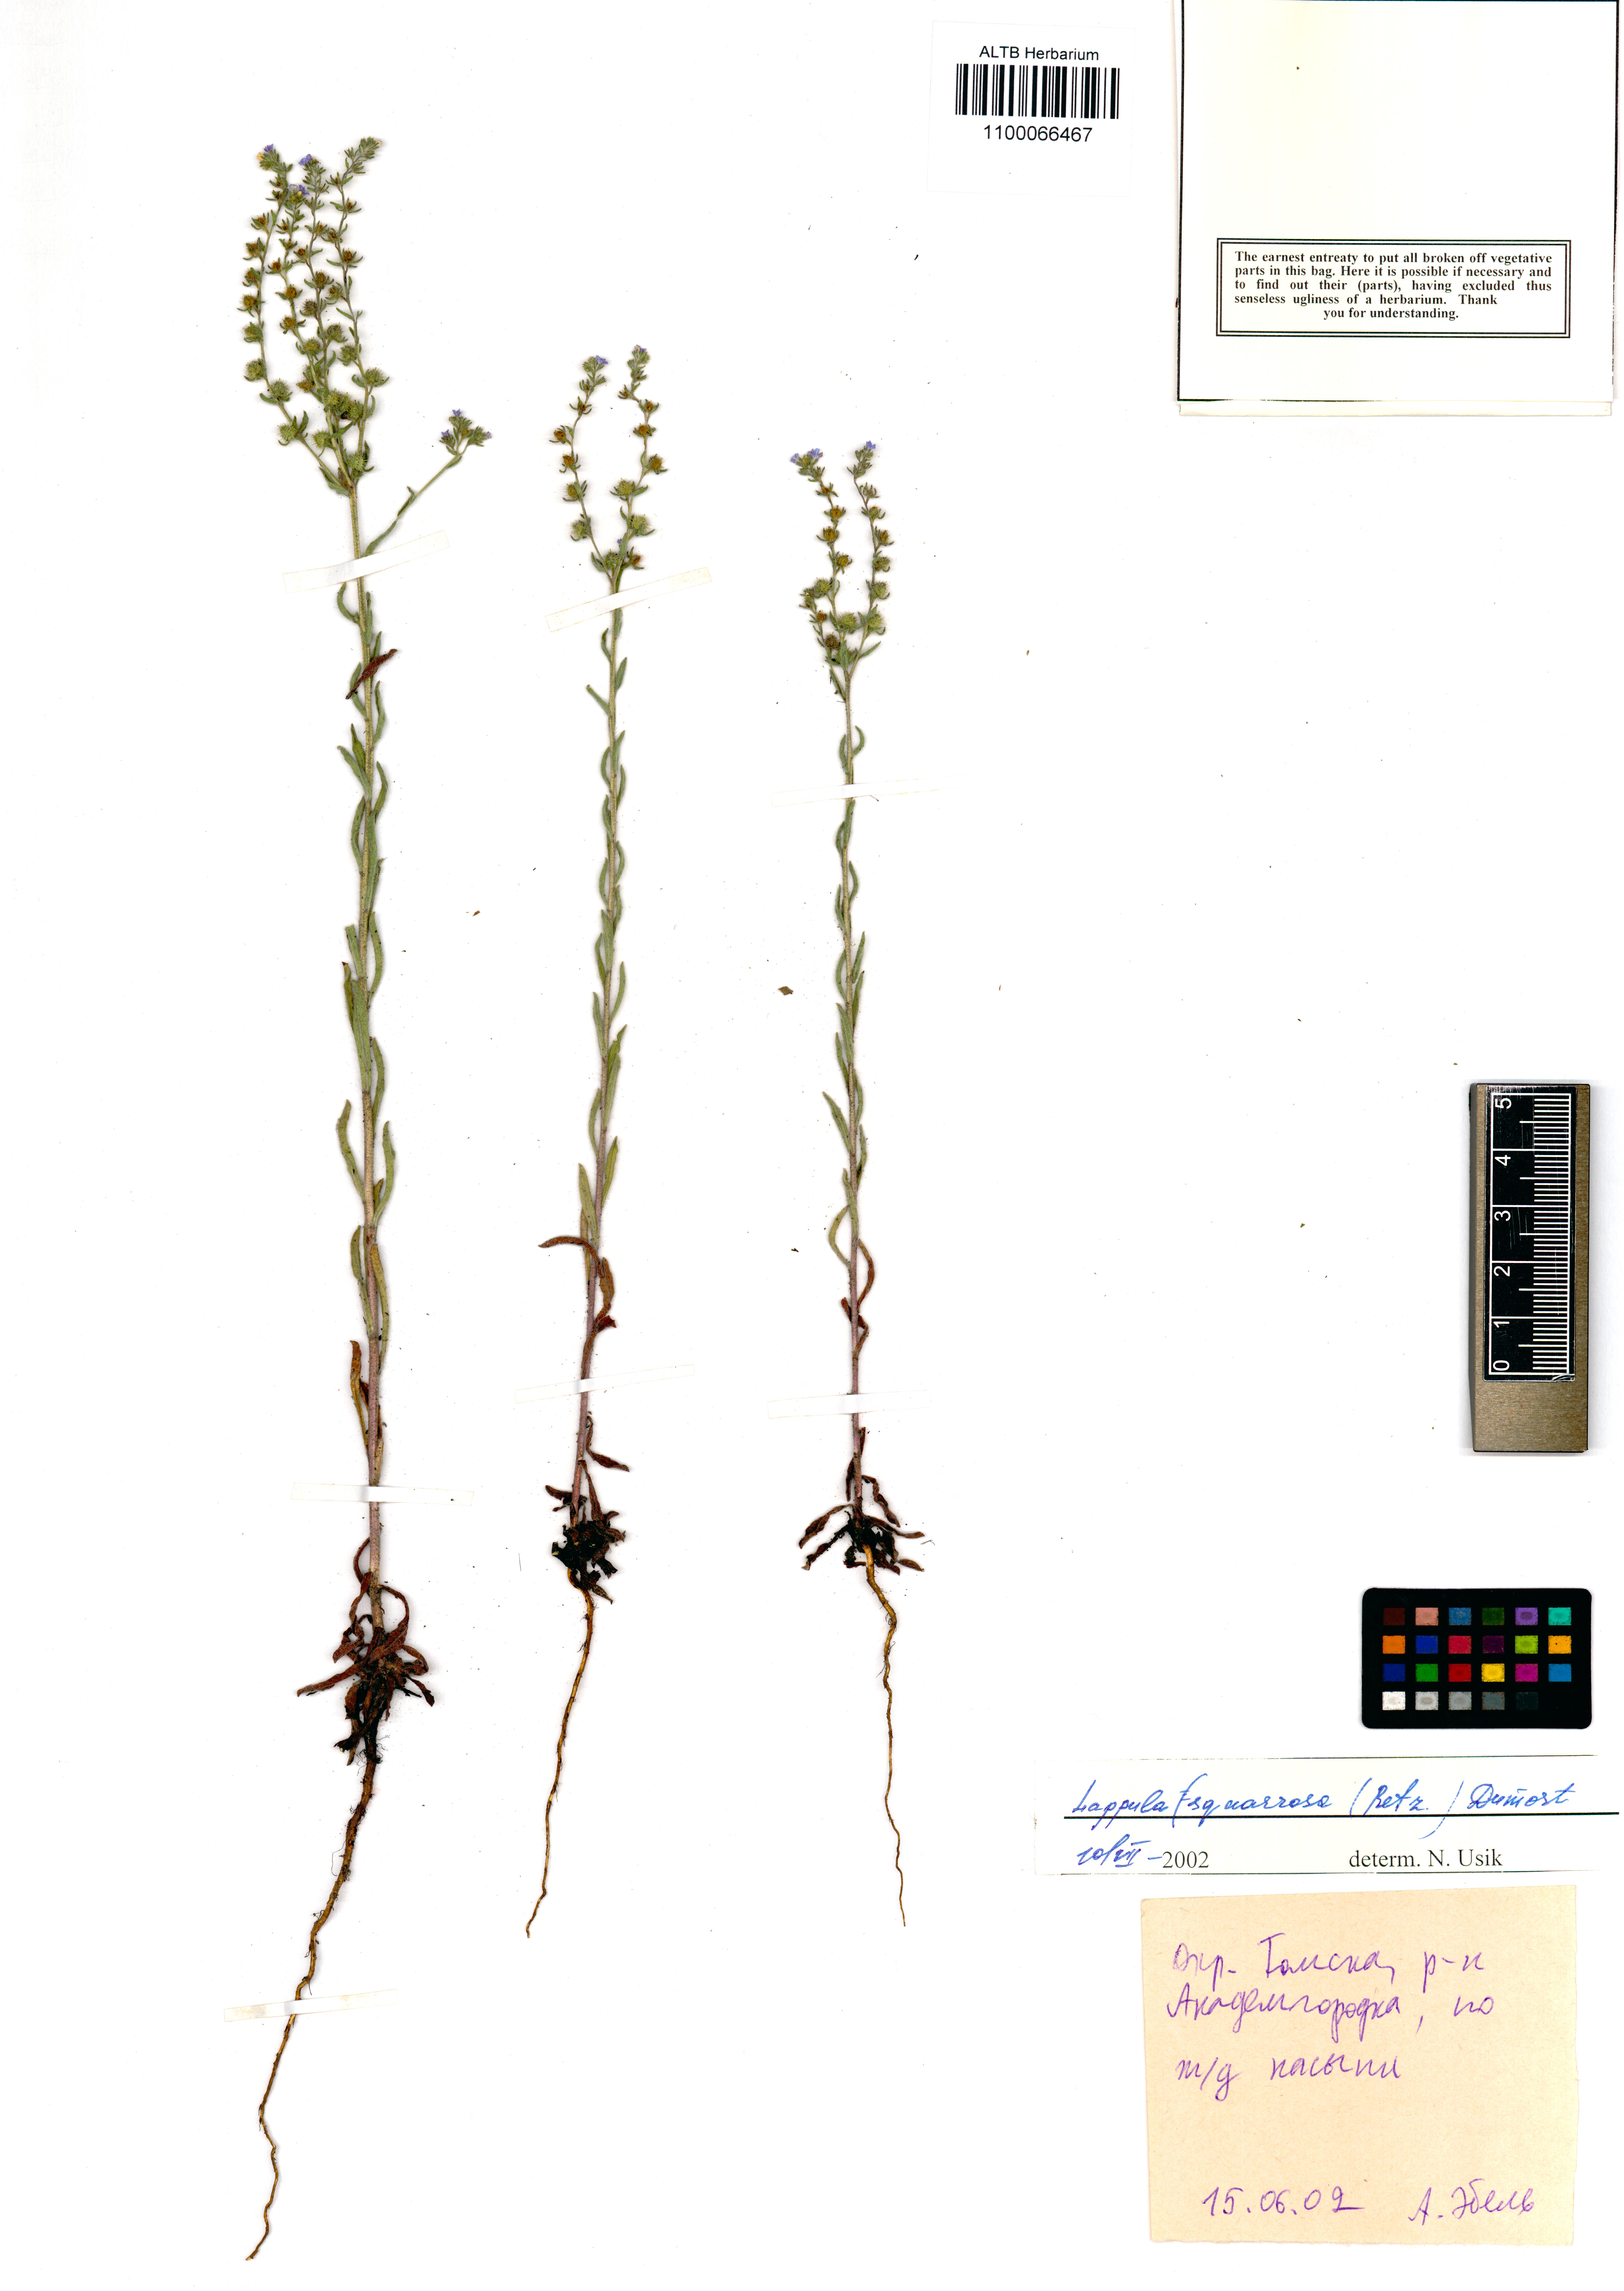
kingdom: Plantae
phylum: Tracheophyta
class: Magnoliopsida
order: Boraginales
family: Boraginaceae
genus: Lappula
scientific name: Lappula squarrosa
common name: European stickseed
